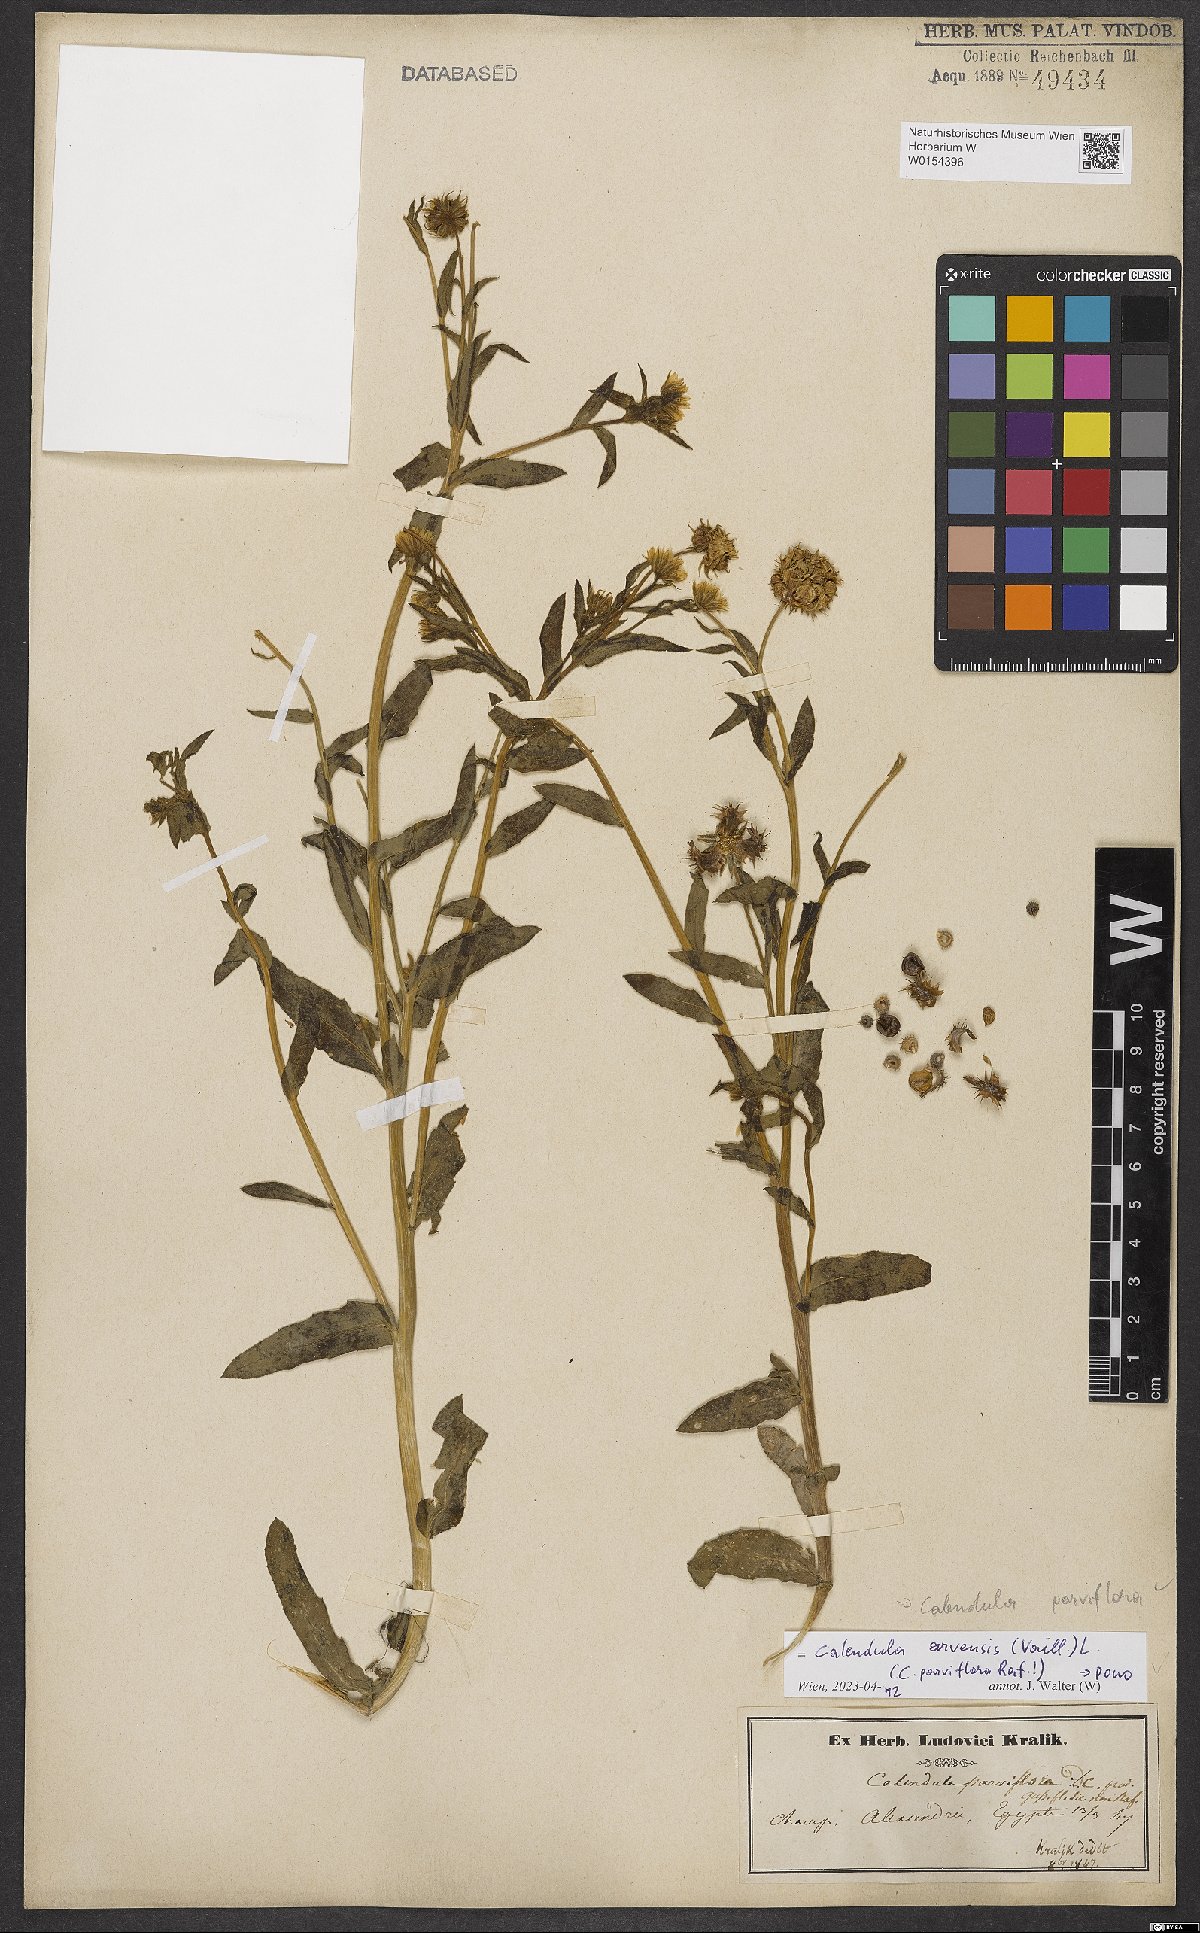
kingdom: Plantae
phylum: Tracheophyta
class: Magnoliopsida
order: Asterales
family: Asteraceae
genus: Calendula
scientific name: Calendula arvensis
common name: Field marigold
